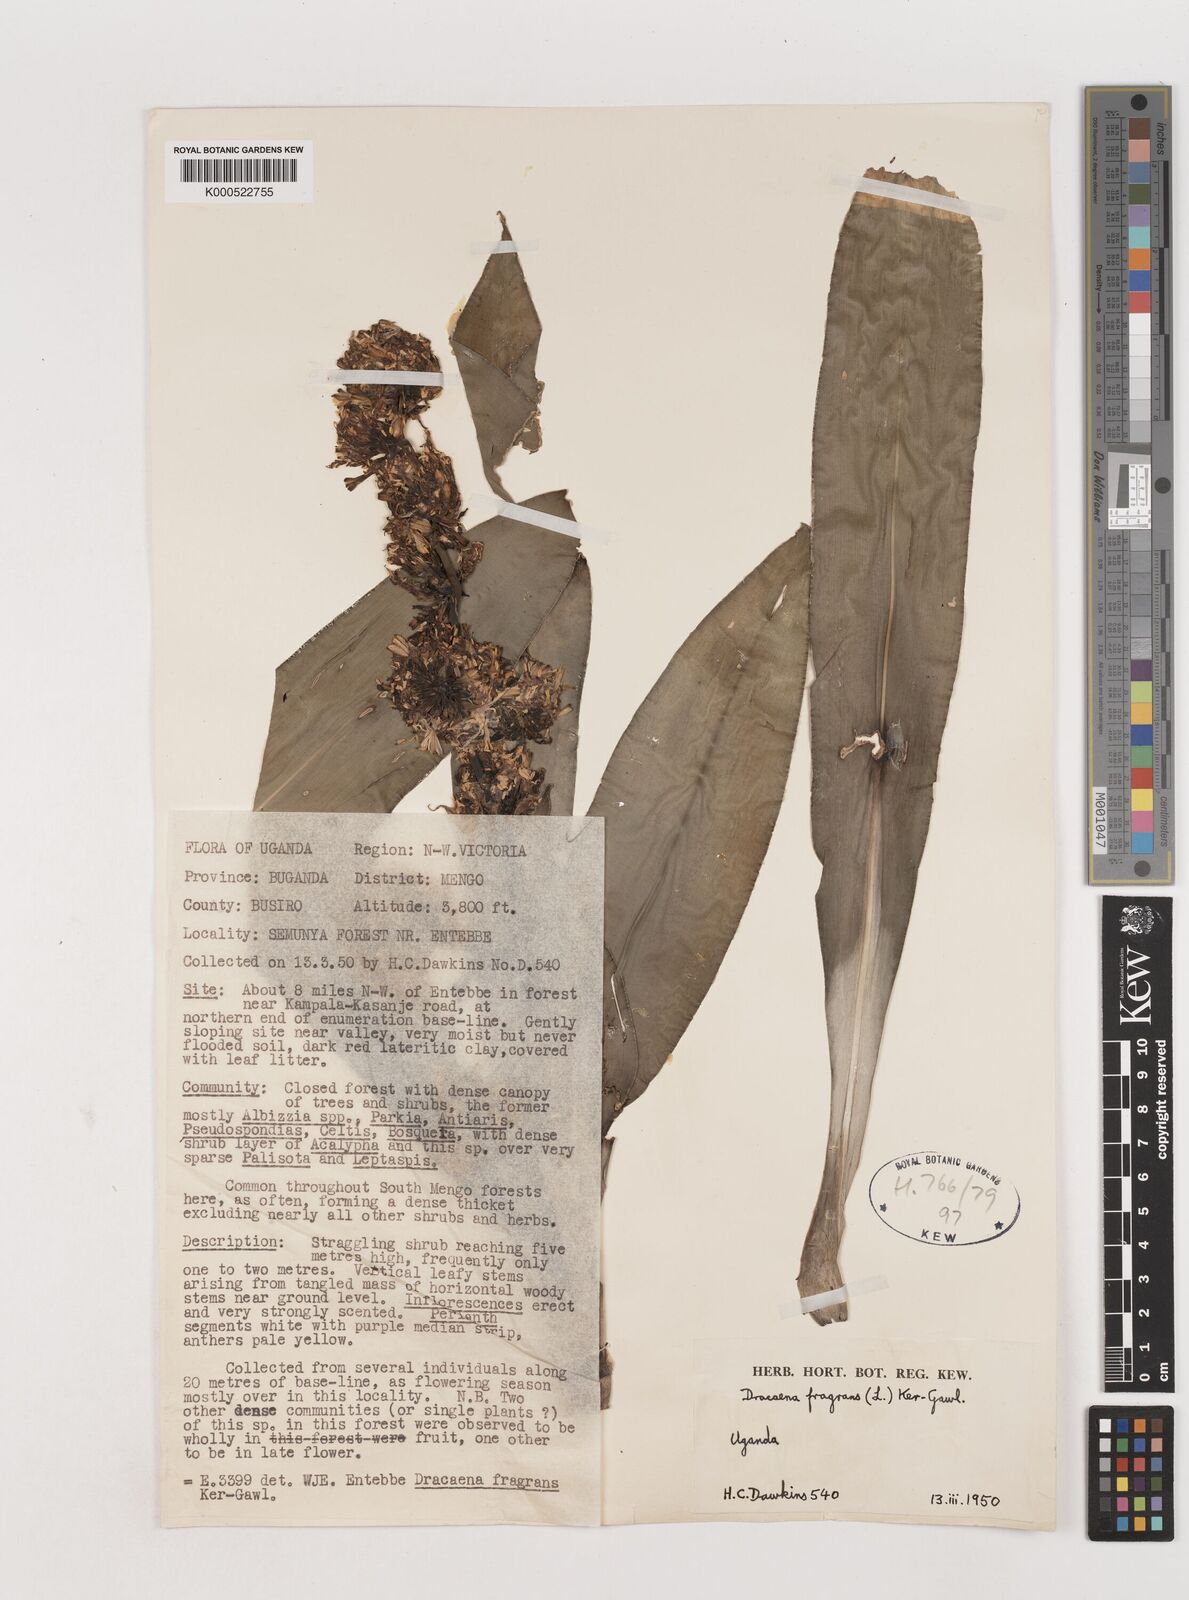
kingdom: Plantae
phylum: Tracheophyta
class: Liliopsida
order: Asparagales
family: Asparagaceae
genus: Dracaena
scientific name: Dracaena fragrans
